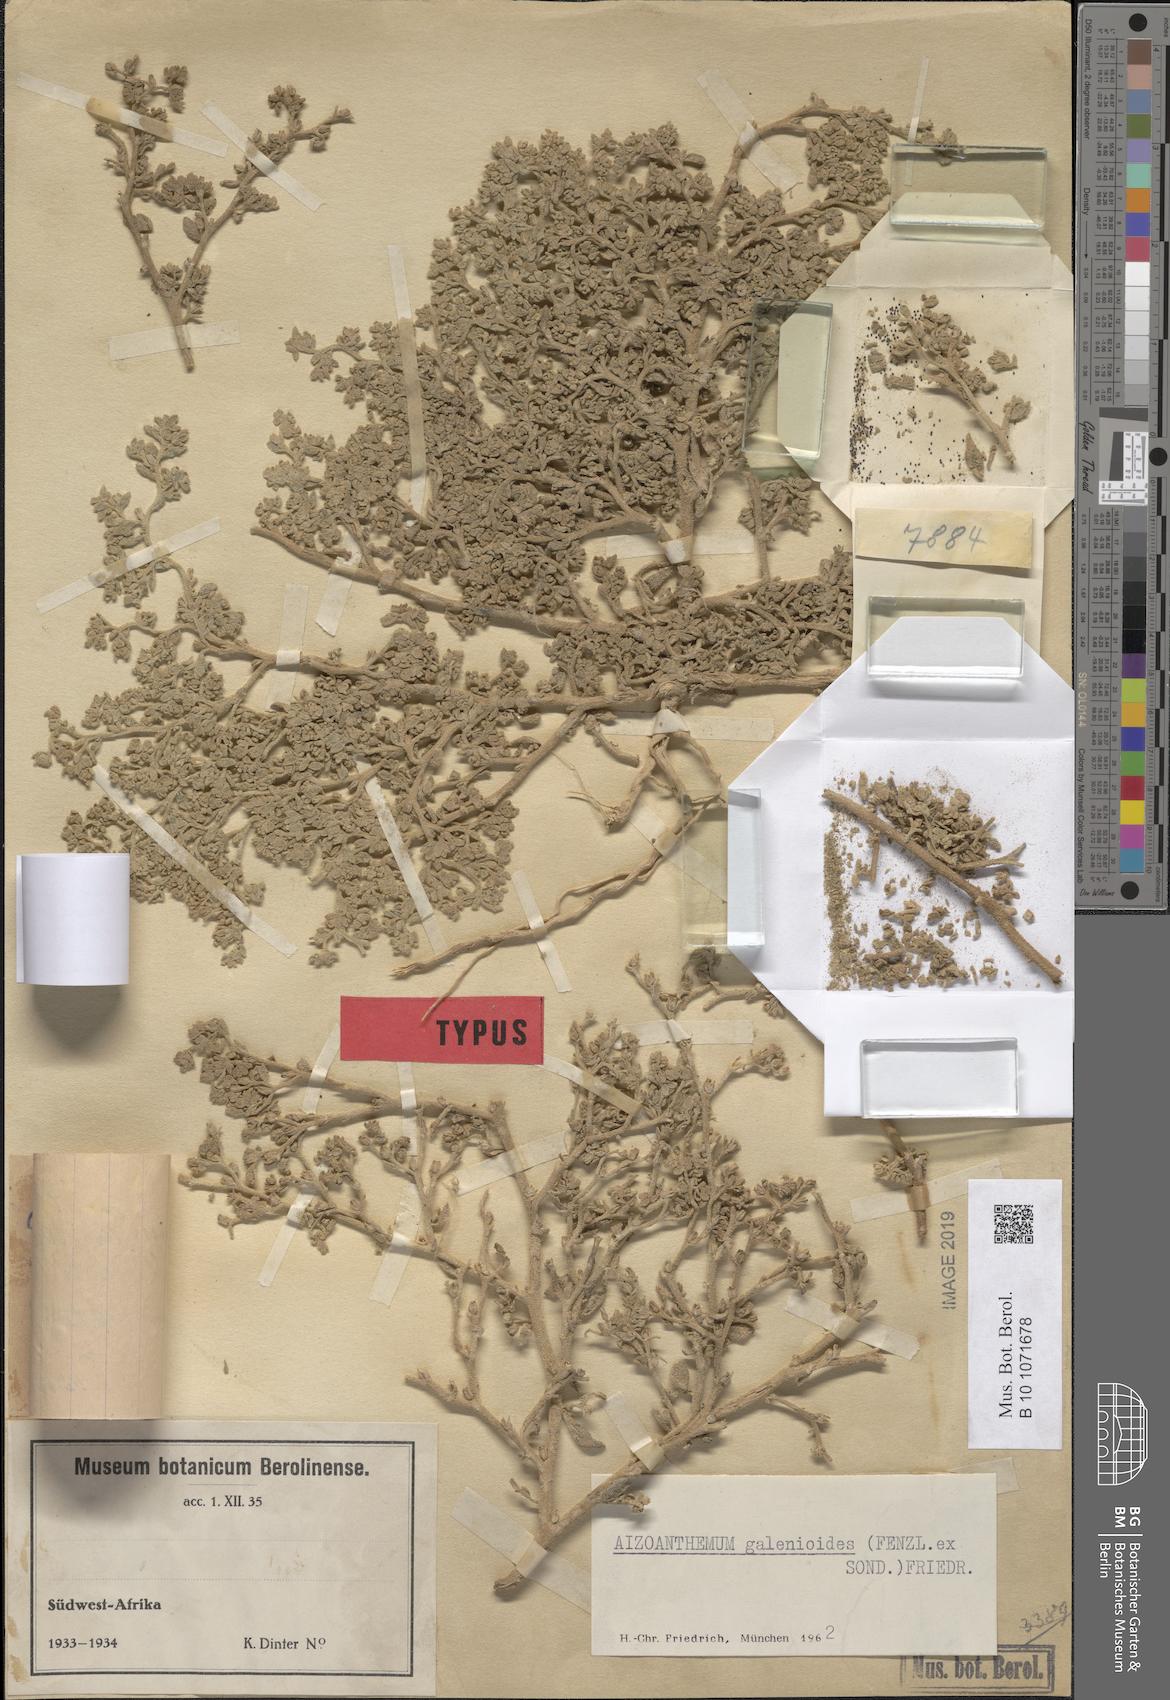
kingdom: Plantae
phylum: Tracheophyta
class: Magnoliopsida
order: Caryophyllales
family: Aizoaceae
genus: Aizoanthemum
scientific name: Aizoanthemum galenioides
